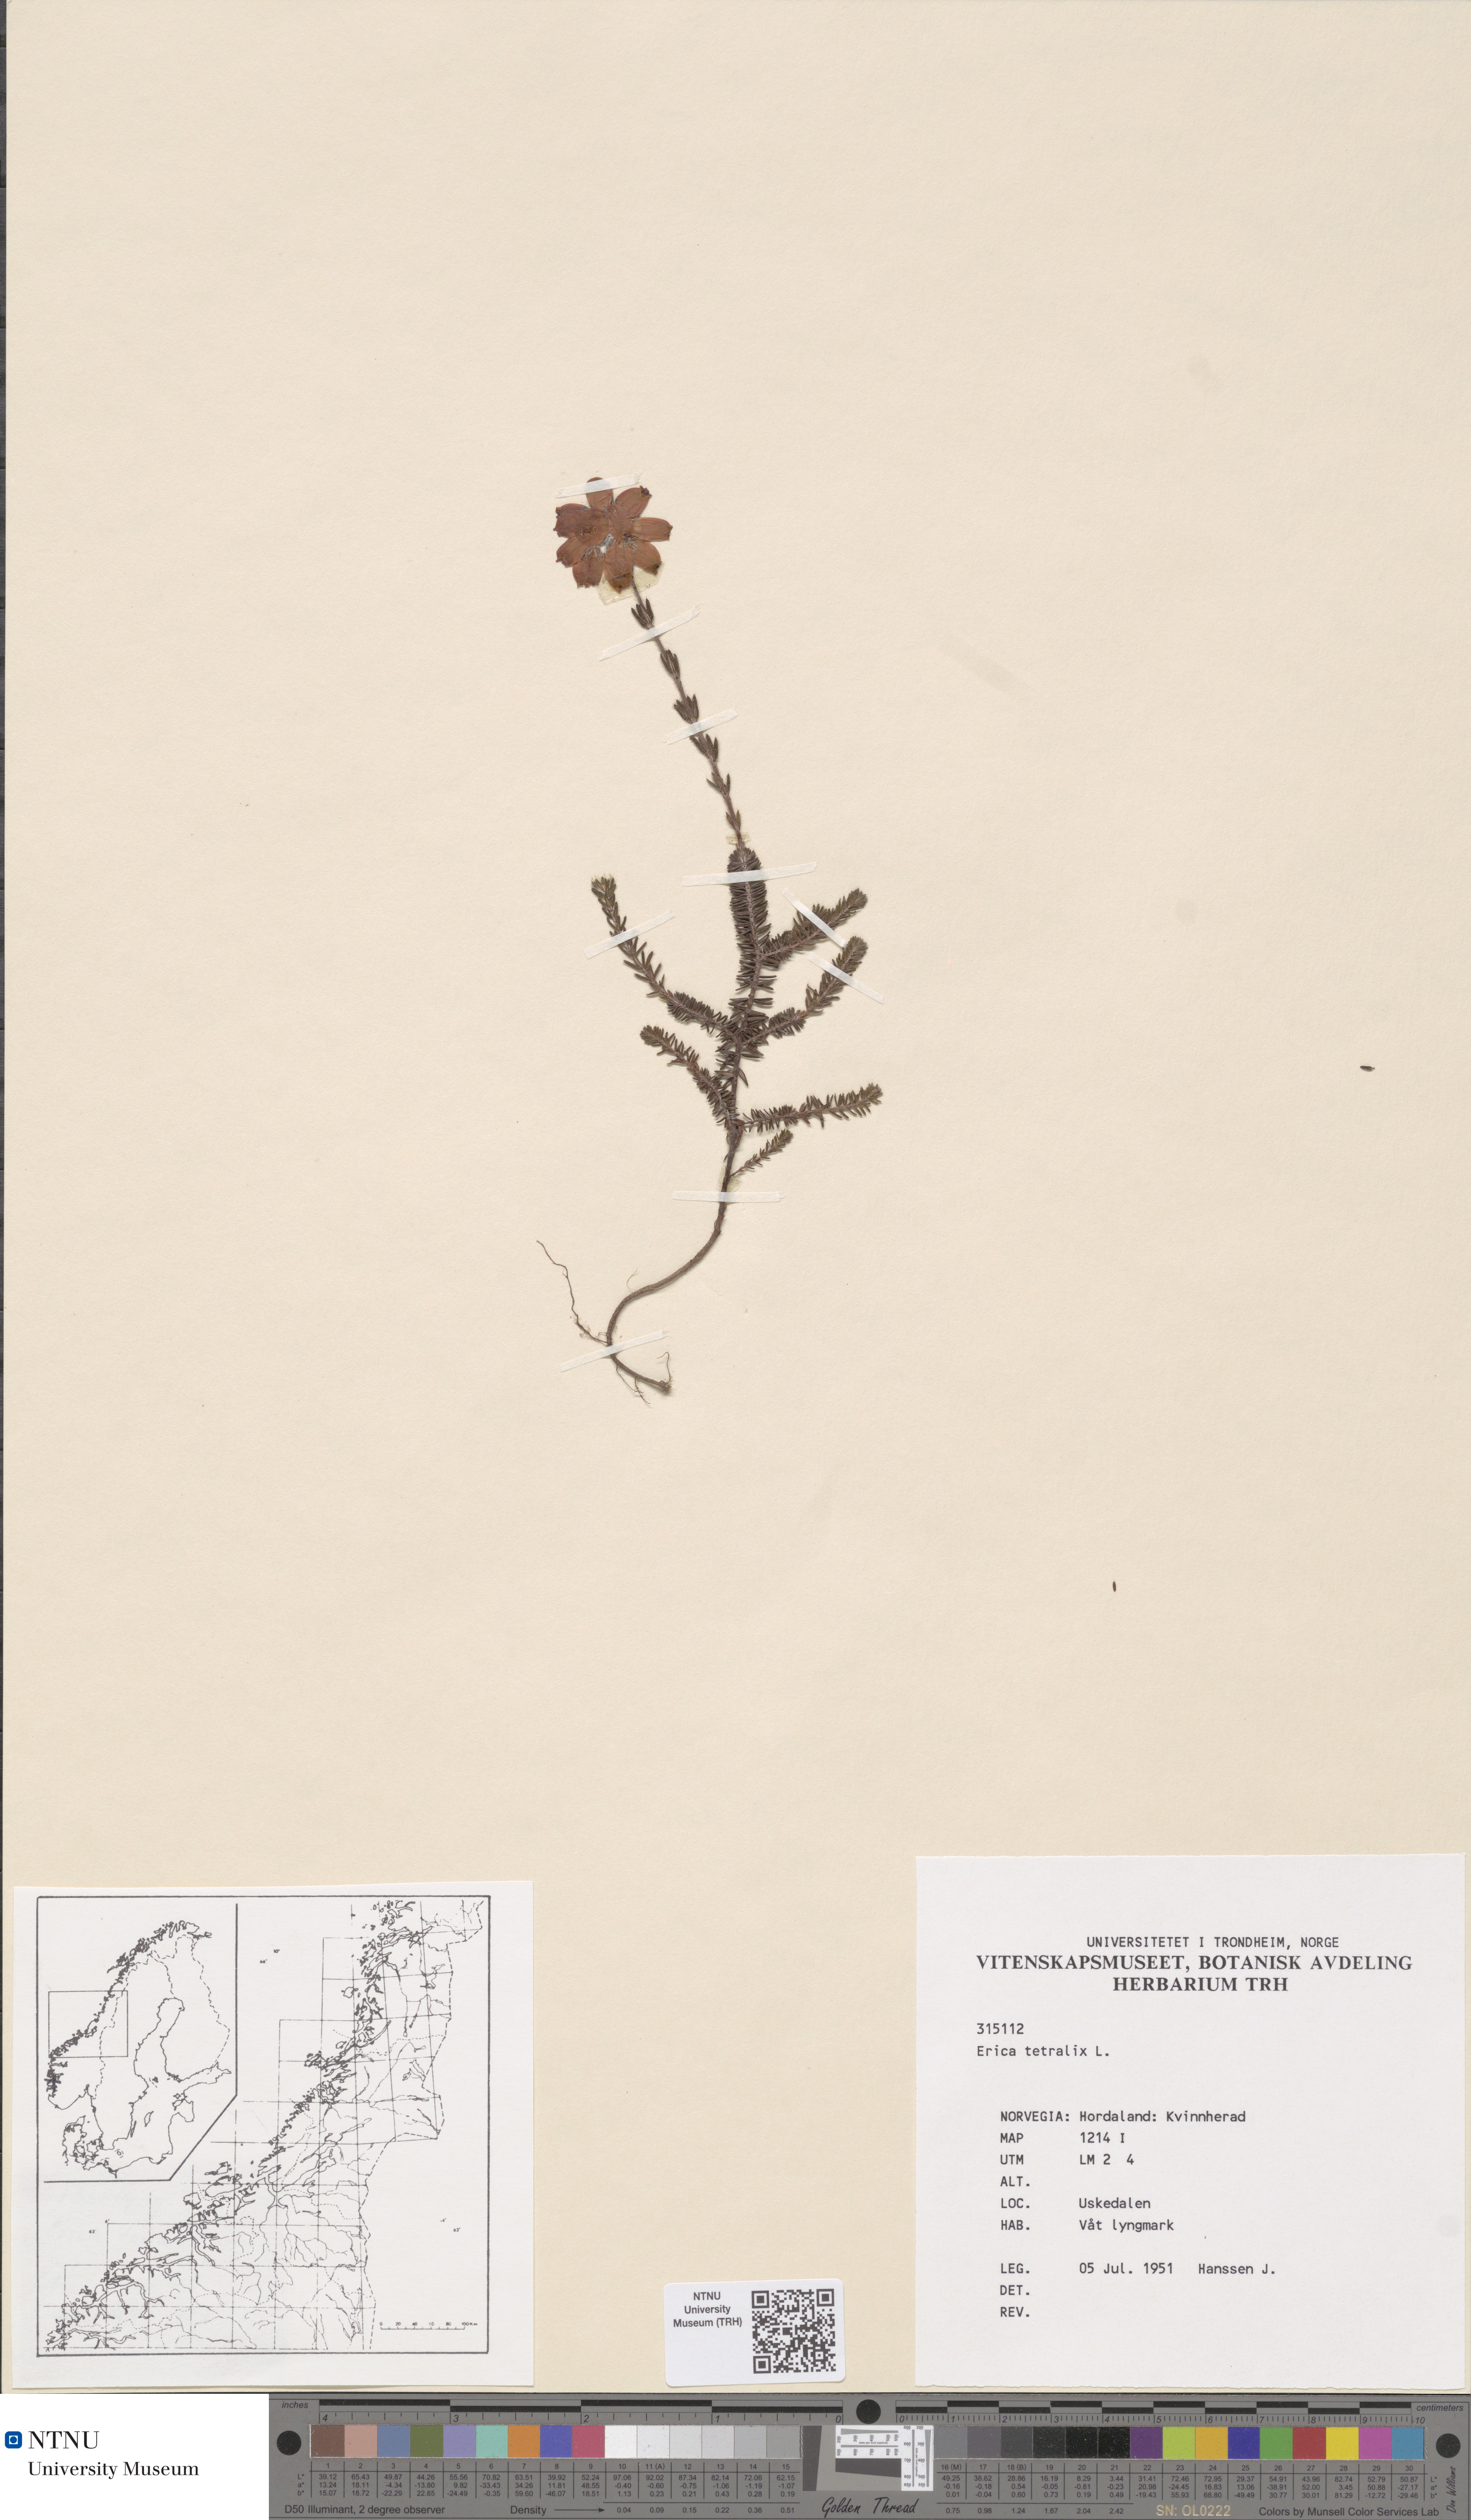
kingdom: Plantae
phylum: Tracheophyta
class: Magnoliopsida
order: Ericales
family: Ericaceae
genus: Erica
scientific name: Erica tetralix
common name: Cross-leaved heath
